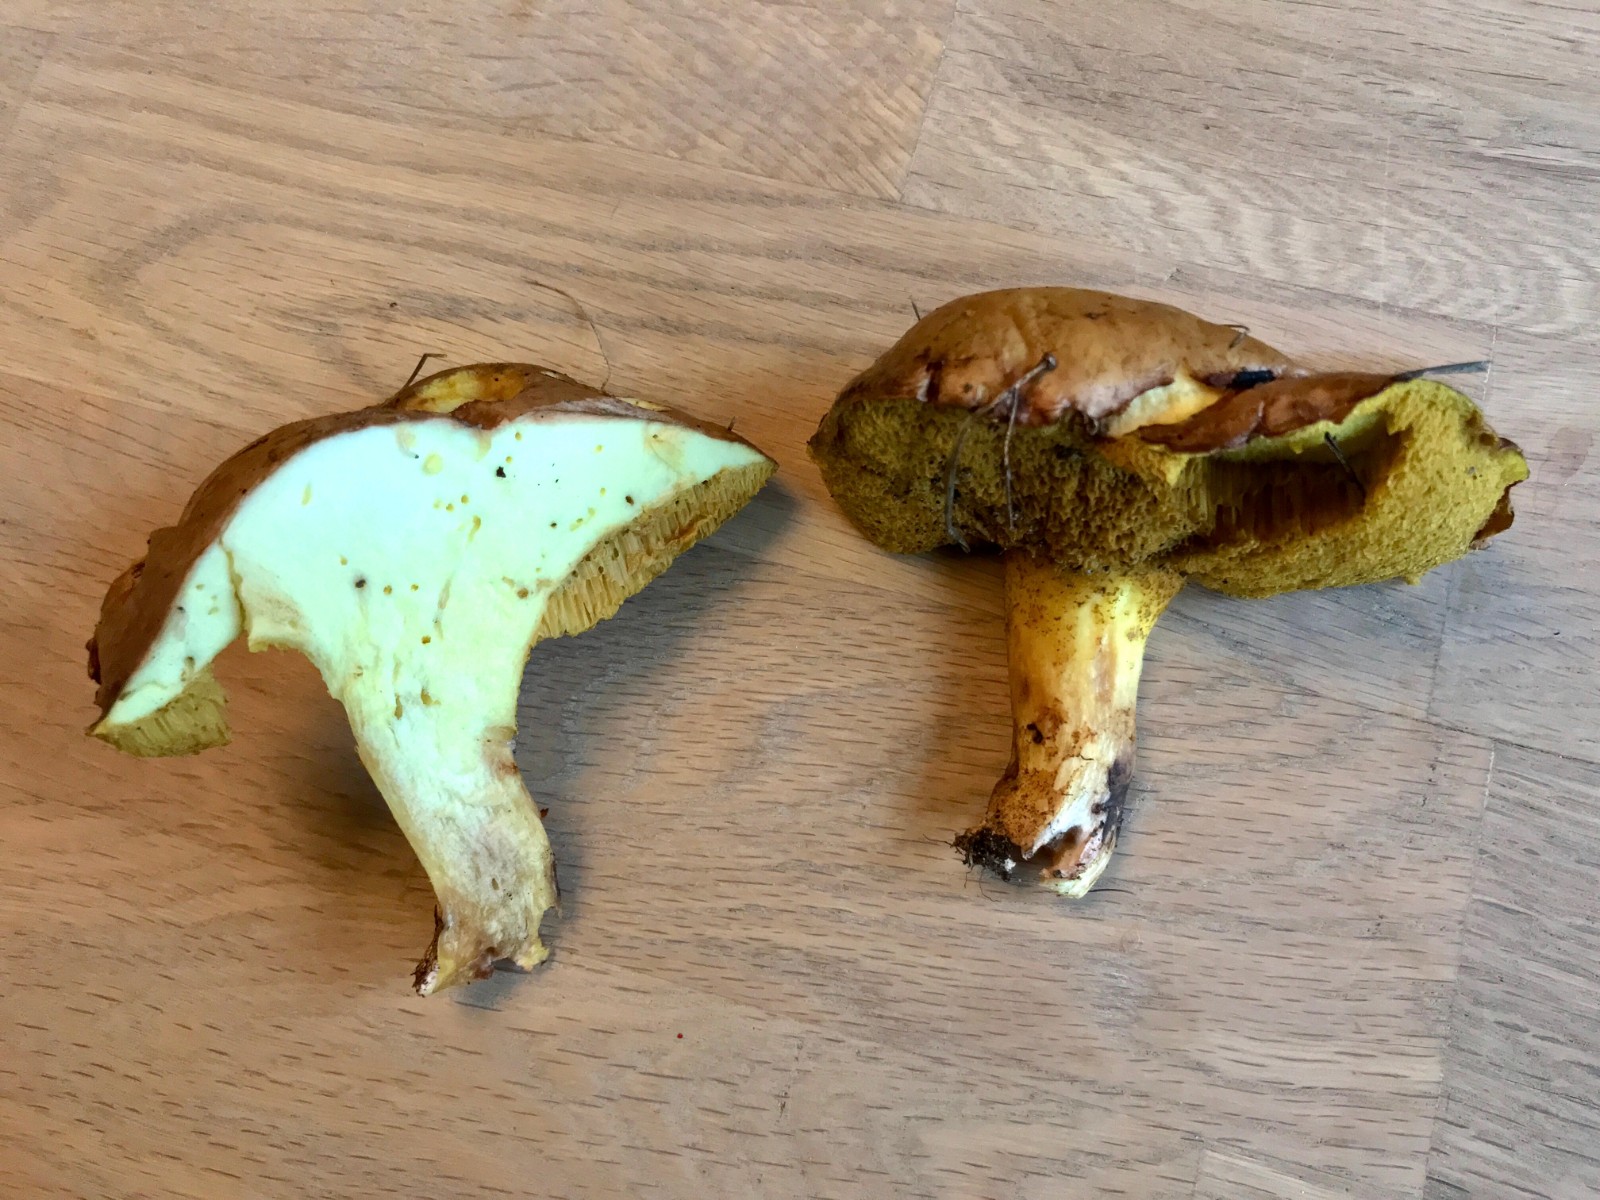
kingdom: Fungi
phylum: Basidiomycota
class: Agaricomycetes
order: Boletales
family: Suillaceae
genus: Suillus
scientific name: Suillus granulatus
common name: kornet slimrørhat
